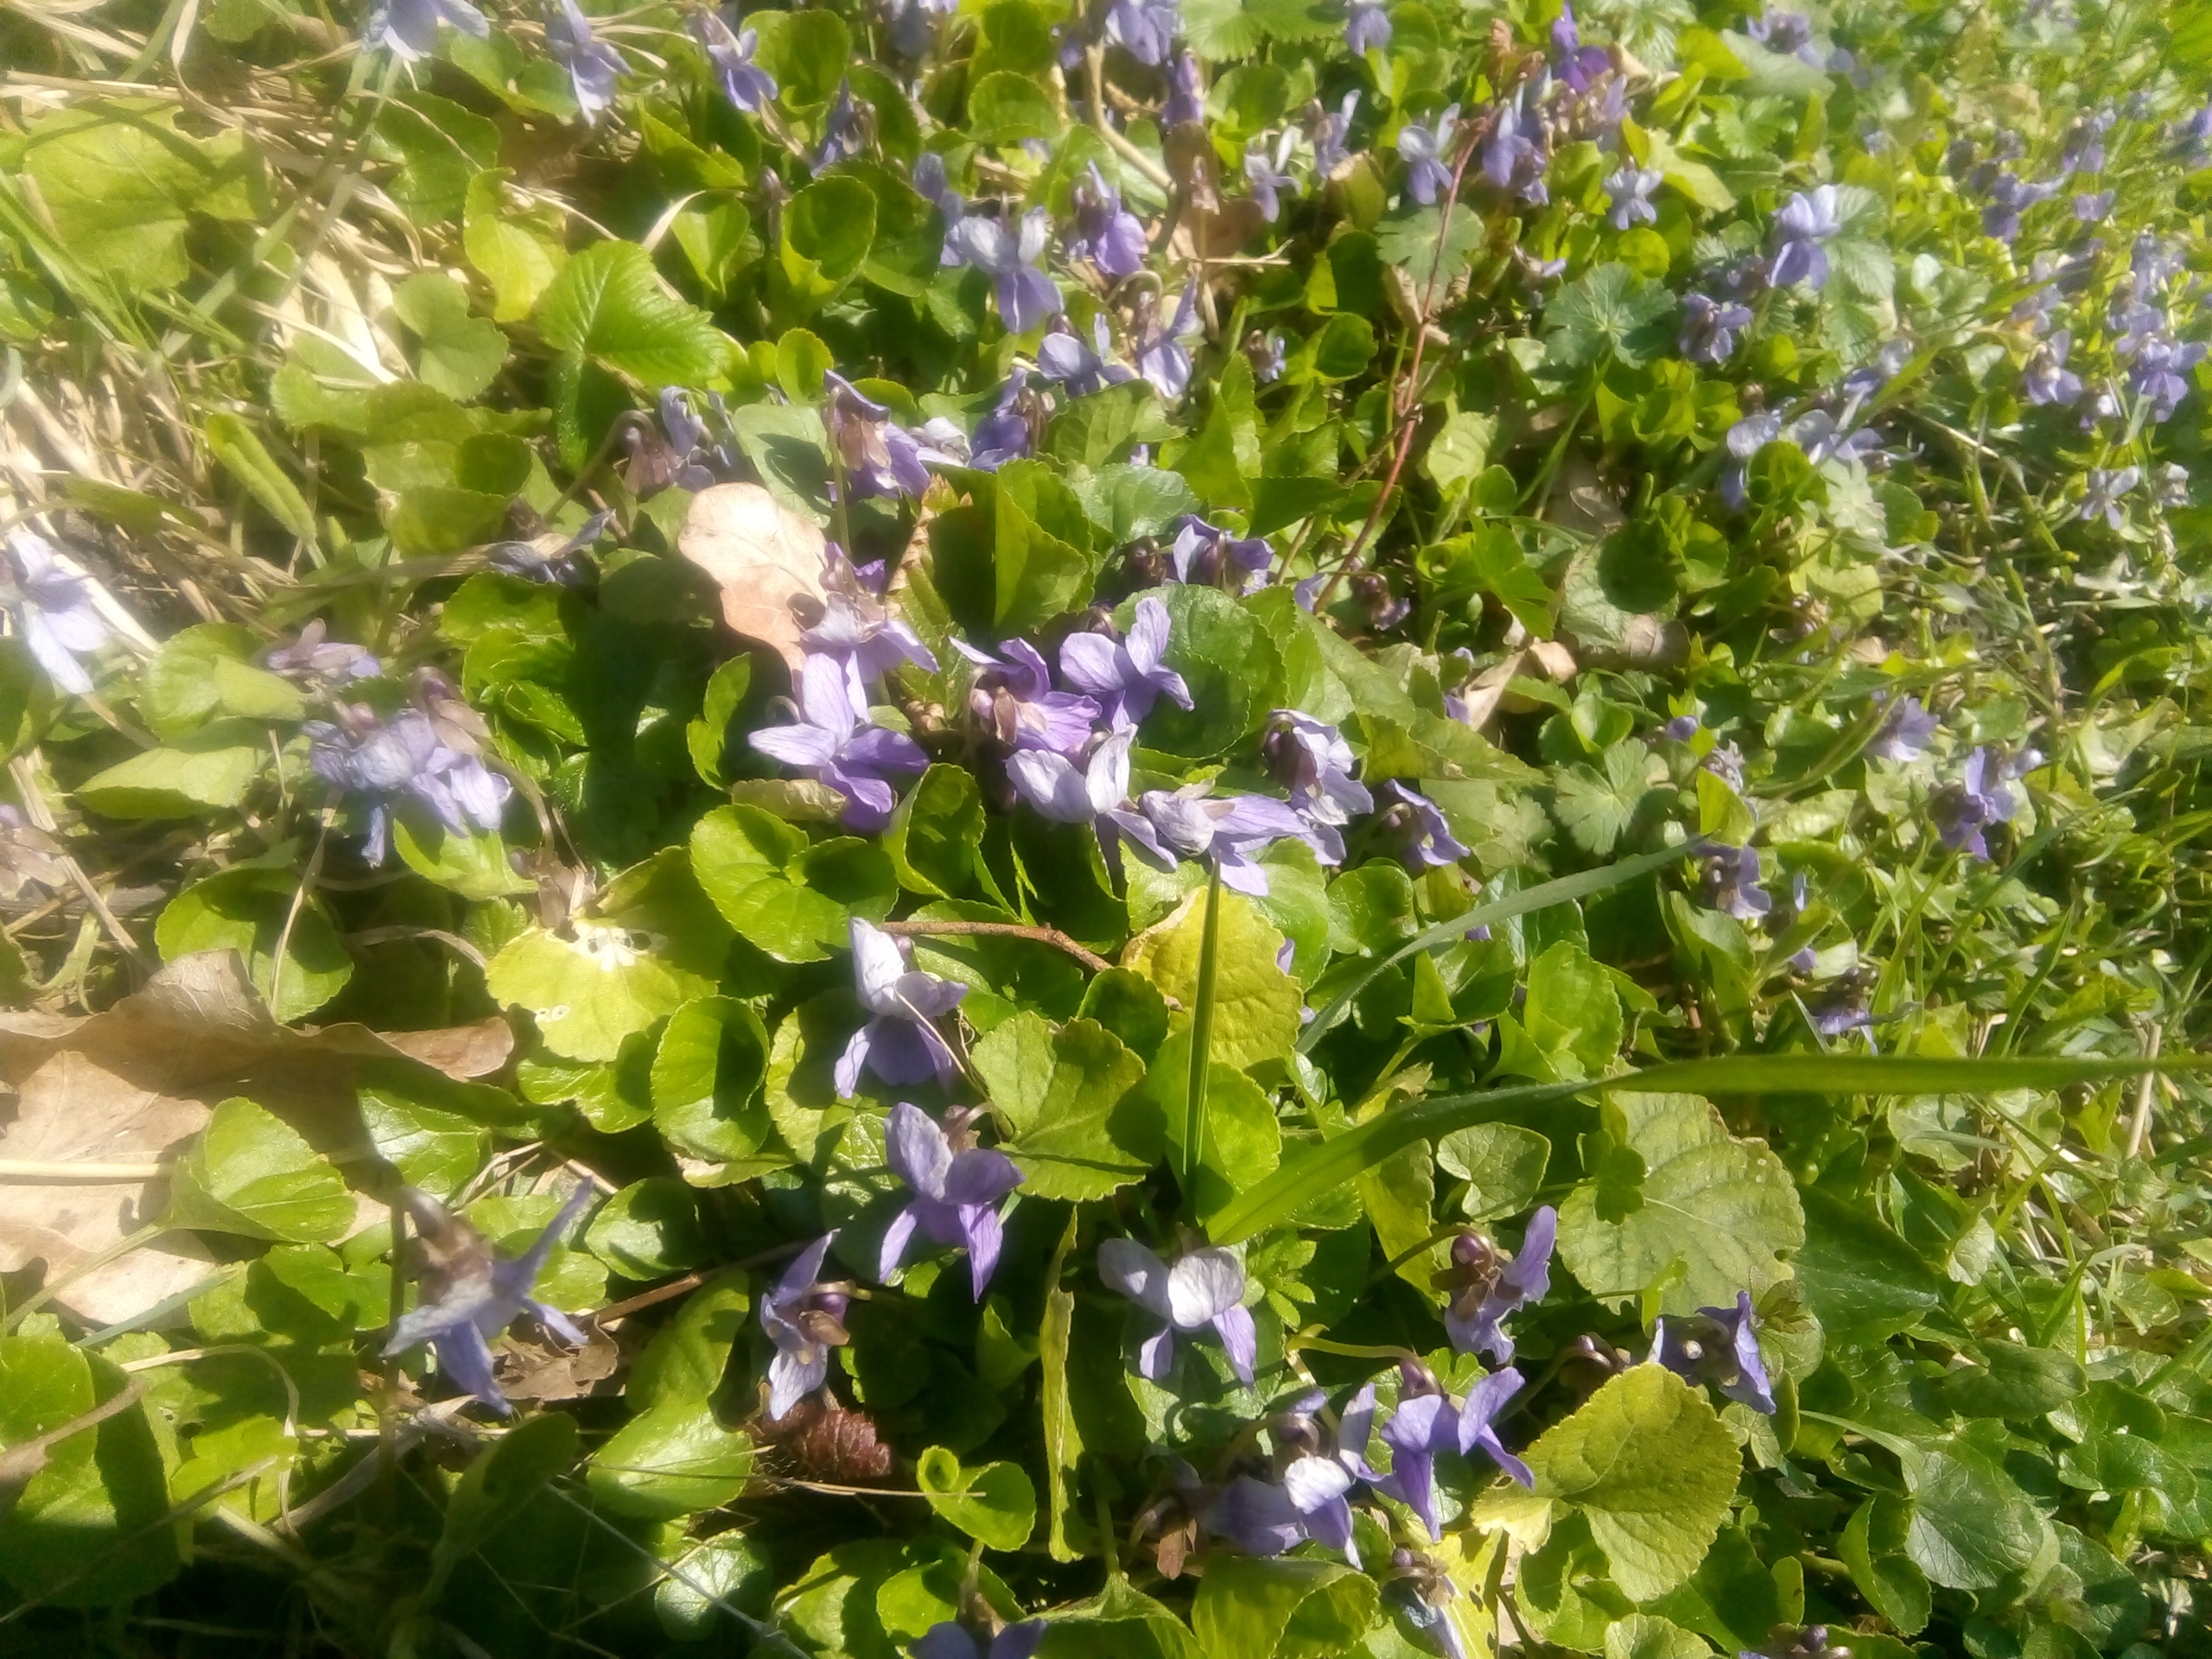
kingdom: Plantae
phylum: Tracheophyta
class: Magnoliopsida
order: Malpighiales
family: Violaceae
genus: Viola
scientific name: Viola odorata
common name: Marts-viol
